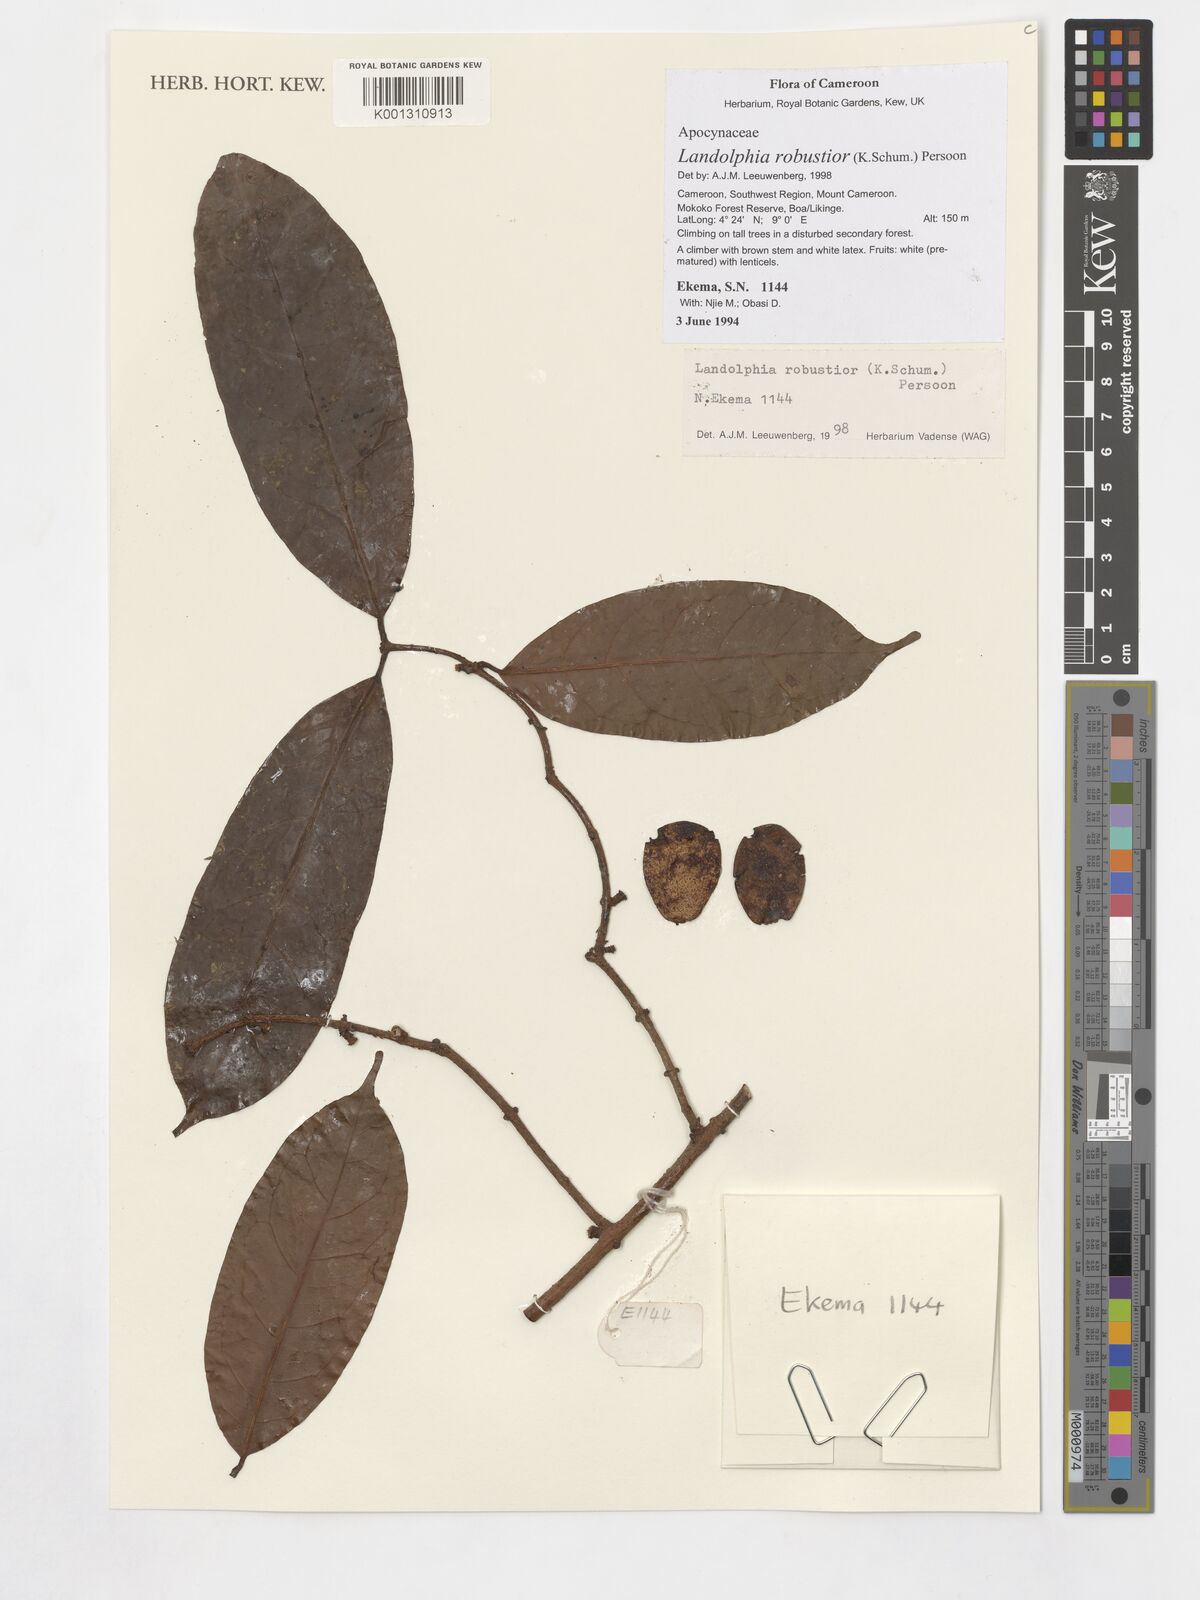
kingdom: Plantae
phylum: Tracheophyta
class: Magnoliopsida
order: Gentianales
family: Apocynaceae
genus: Landolphia
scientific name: Landolphia robustior
